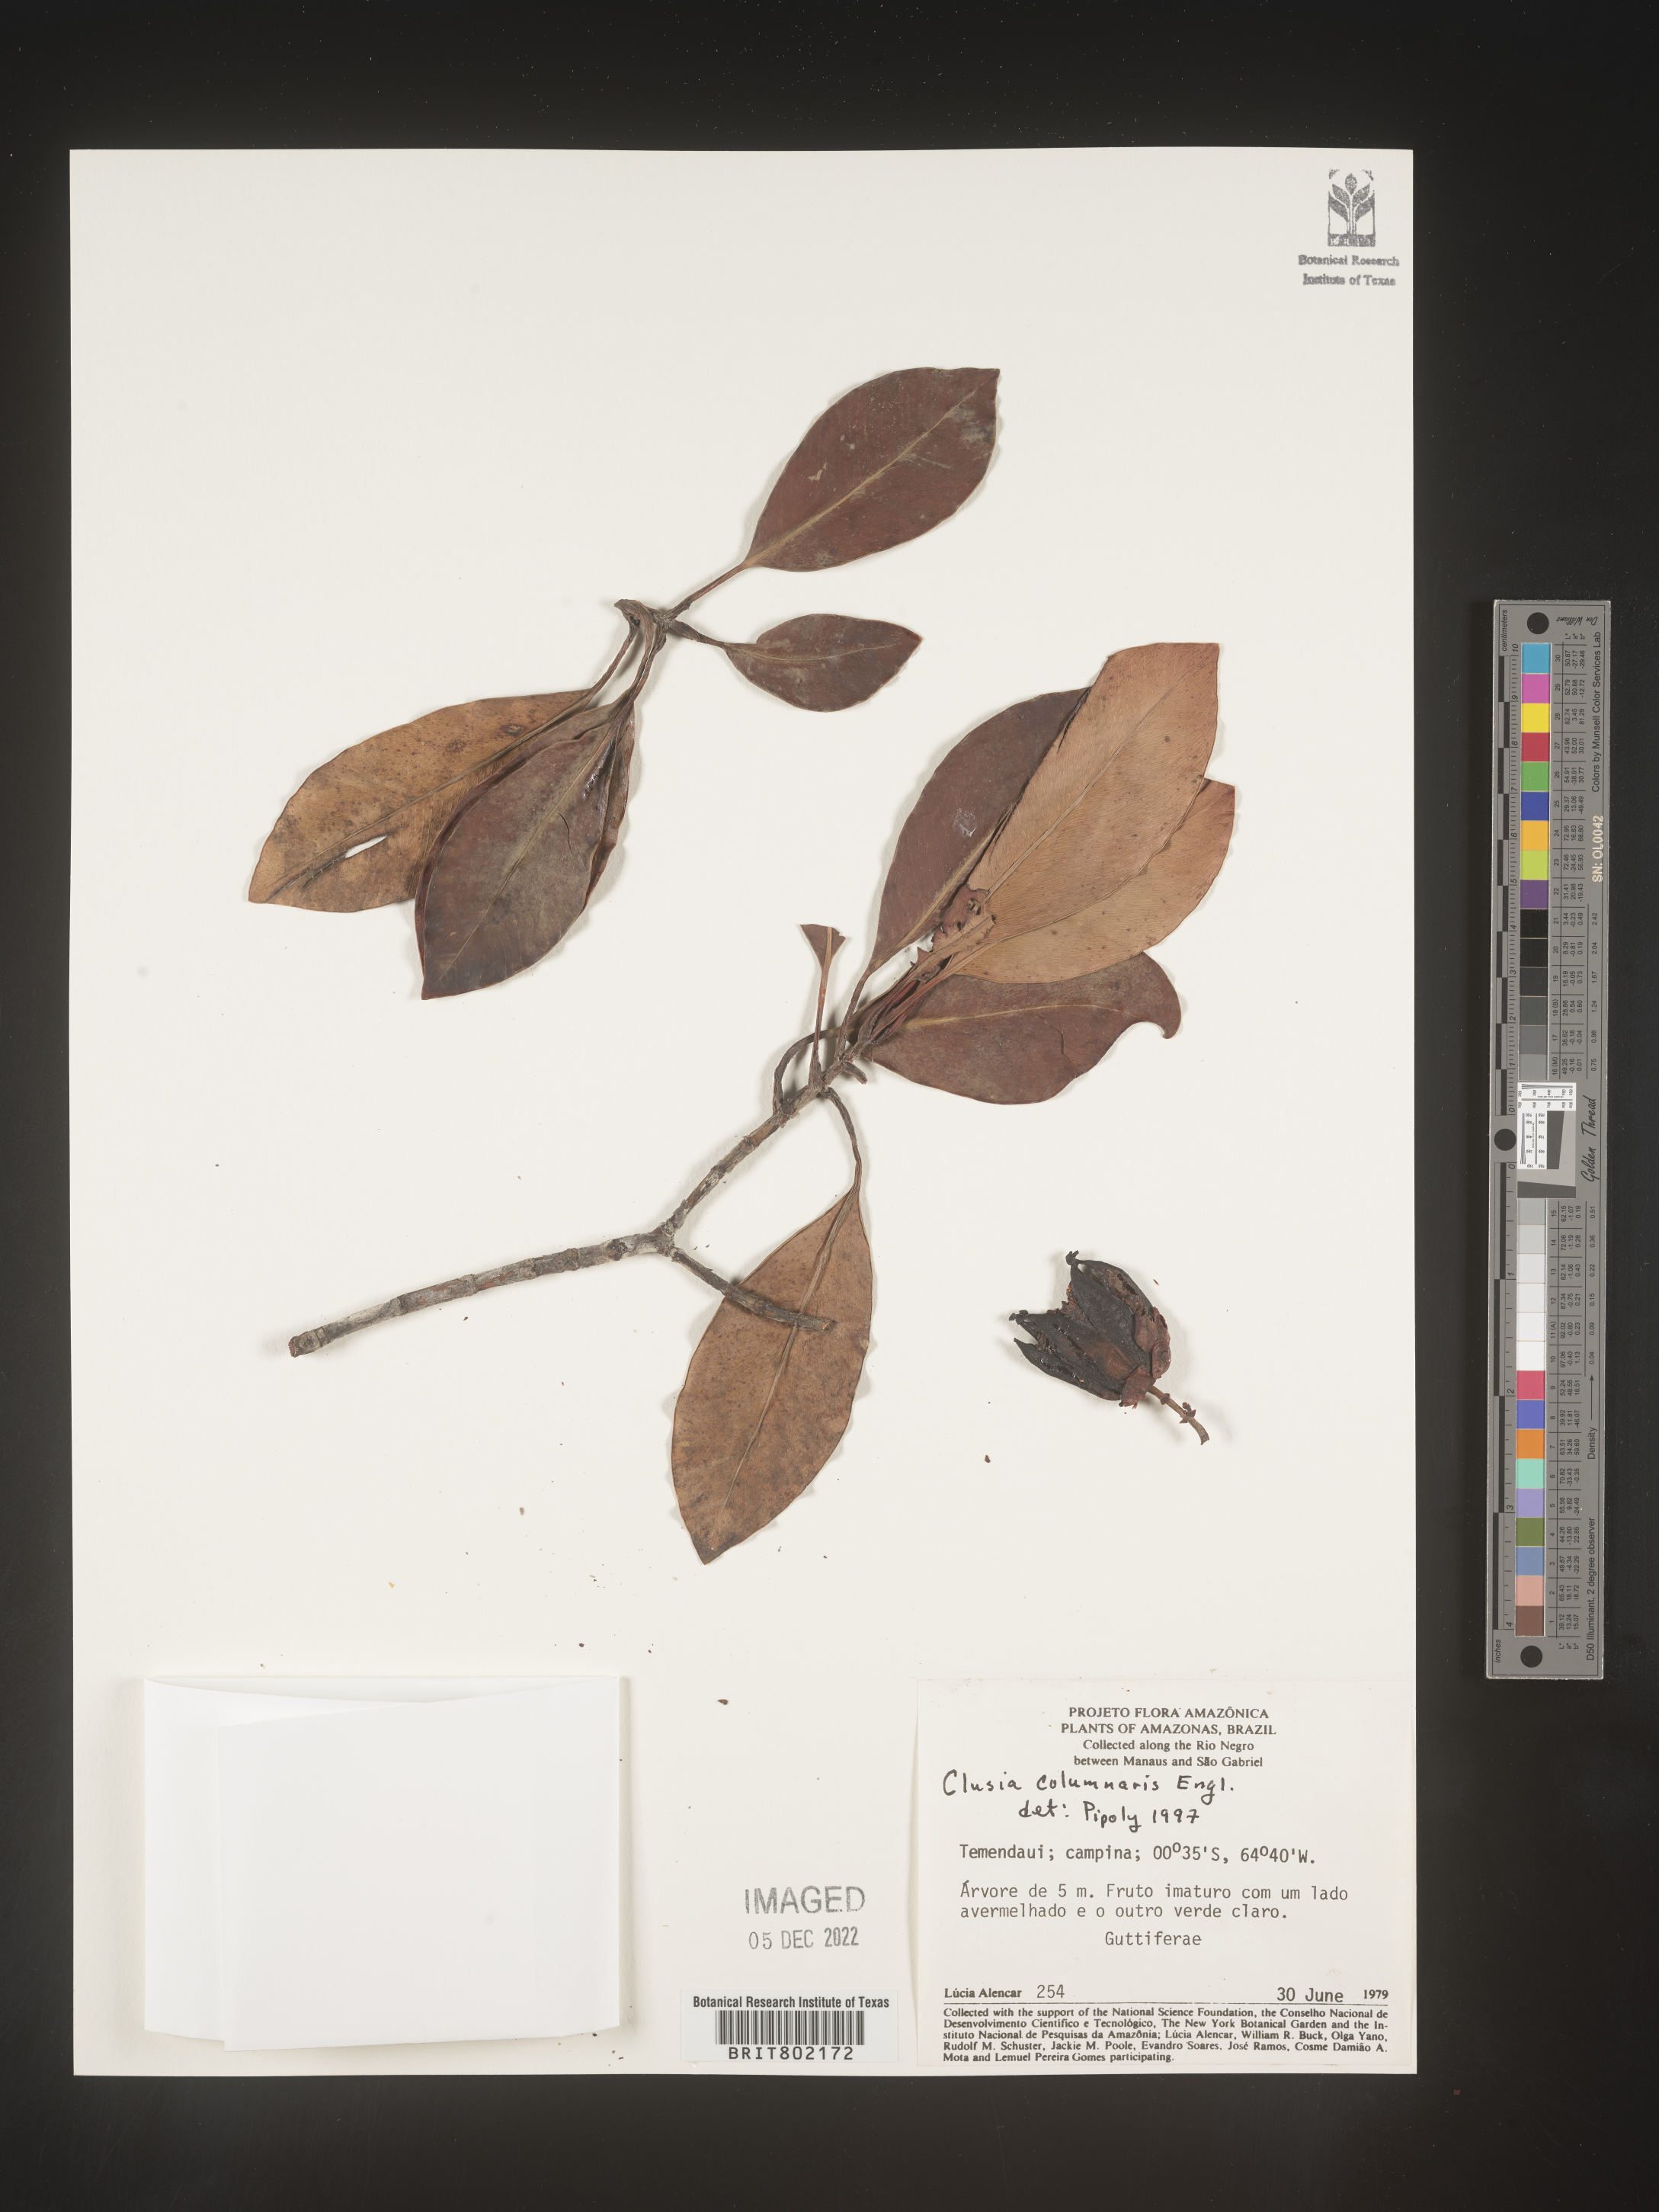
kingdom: Plantae
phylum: Tracheophyta
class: Magnoliopsida
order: Malpighiales
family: Clusiaceae
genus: Clusia
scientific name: Clusia columnaris
